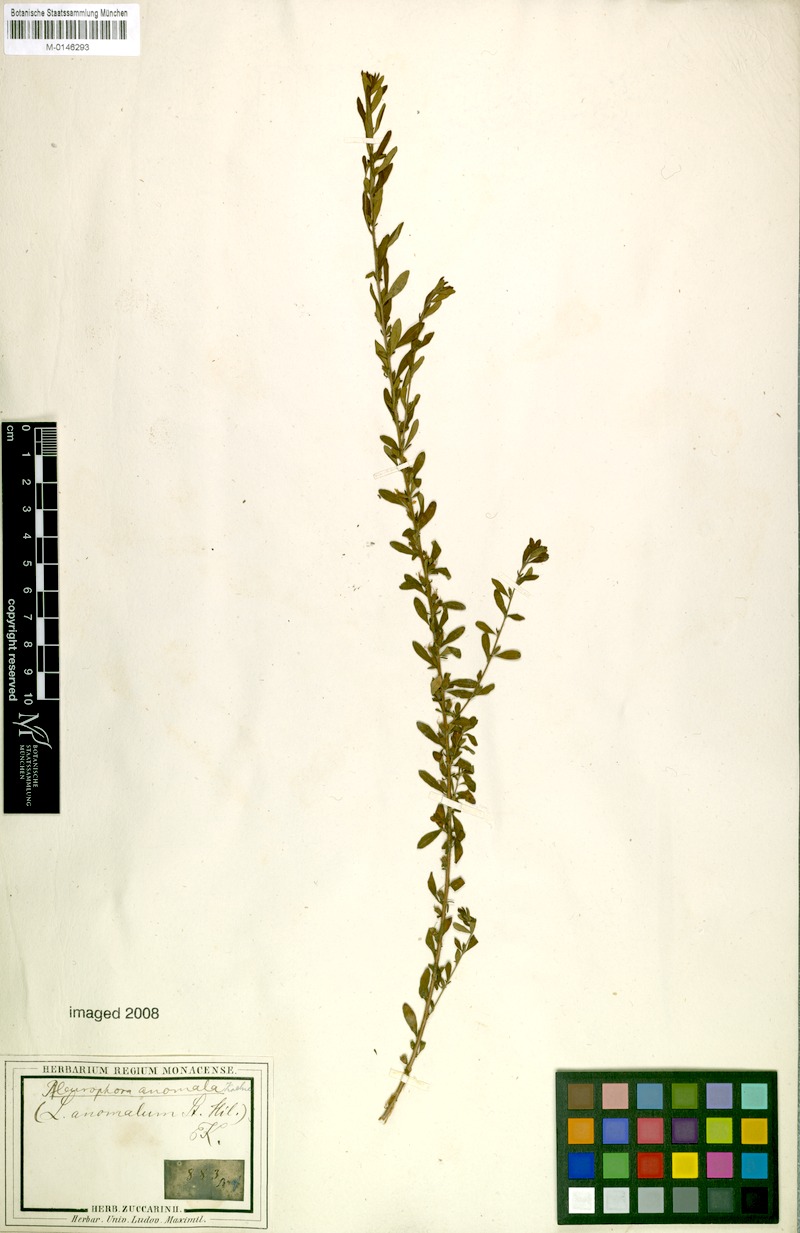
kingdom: Plantae
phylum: Tracheophyta
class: Magnoliopsida
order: Myrtales
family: Lythraceae
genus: Pleurophora
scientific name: Pleurophora anomala
